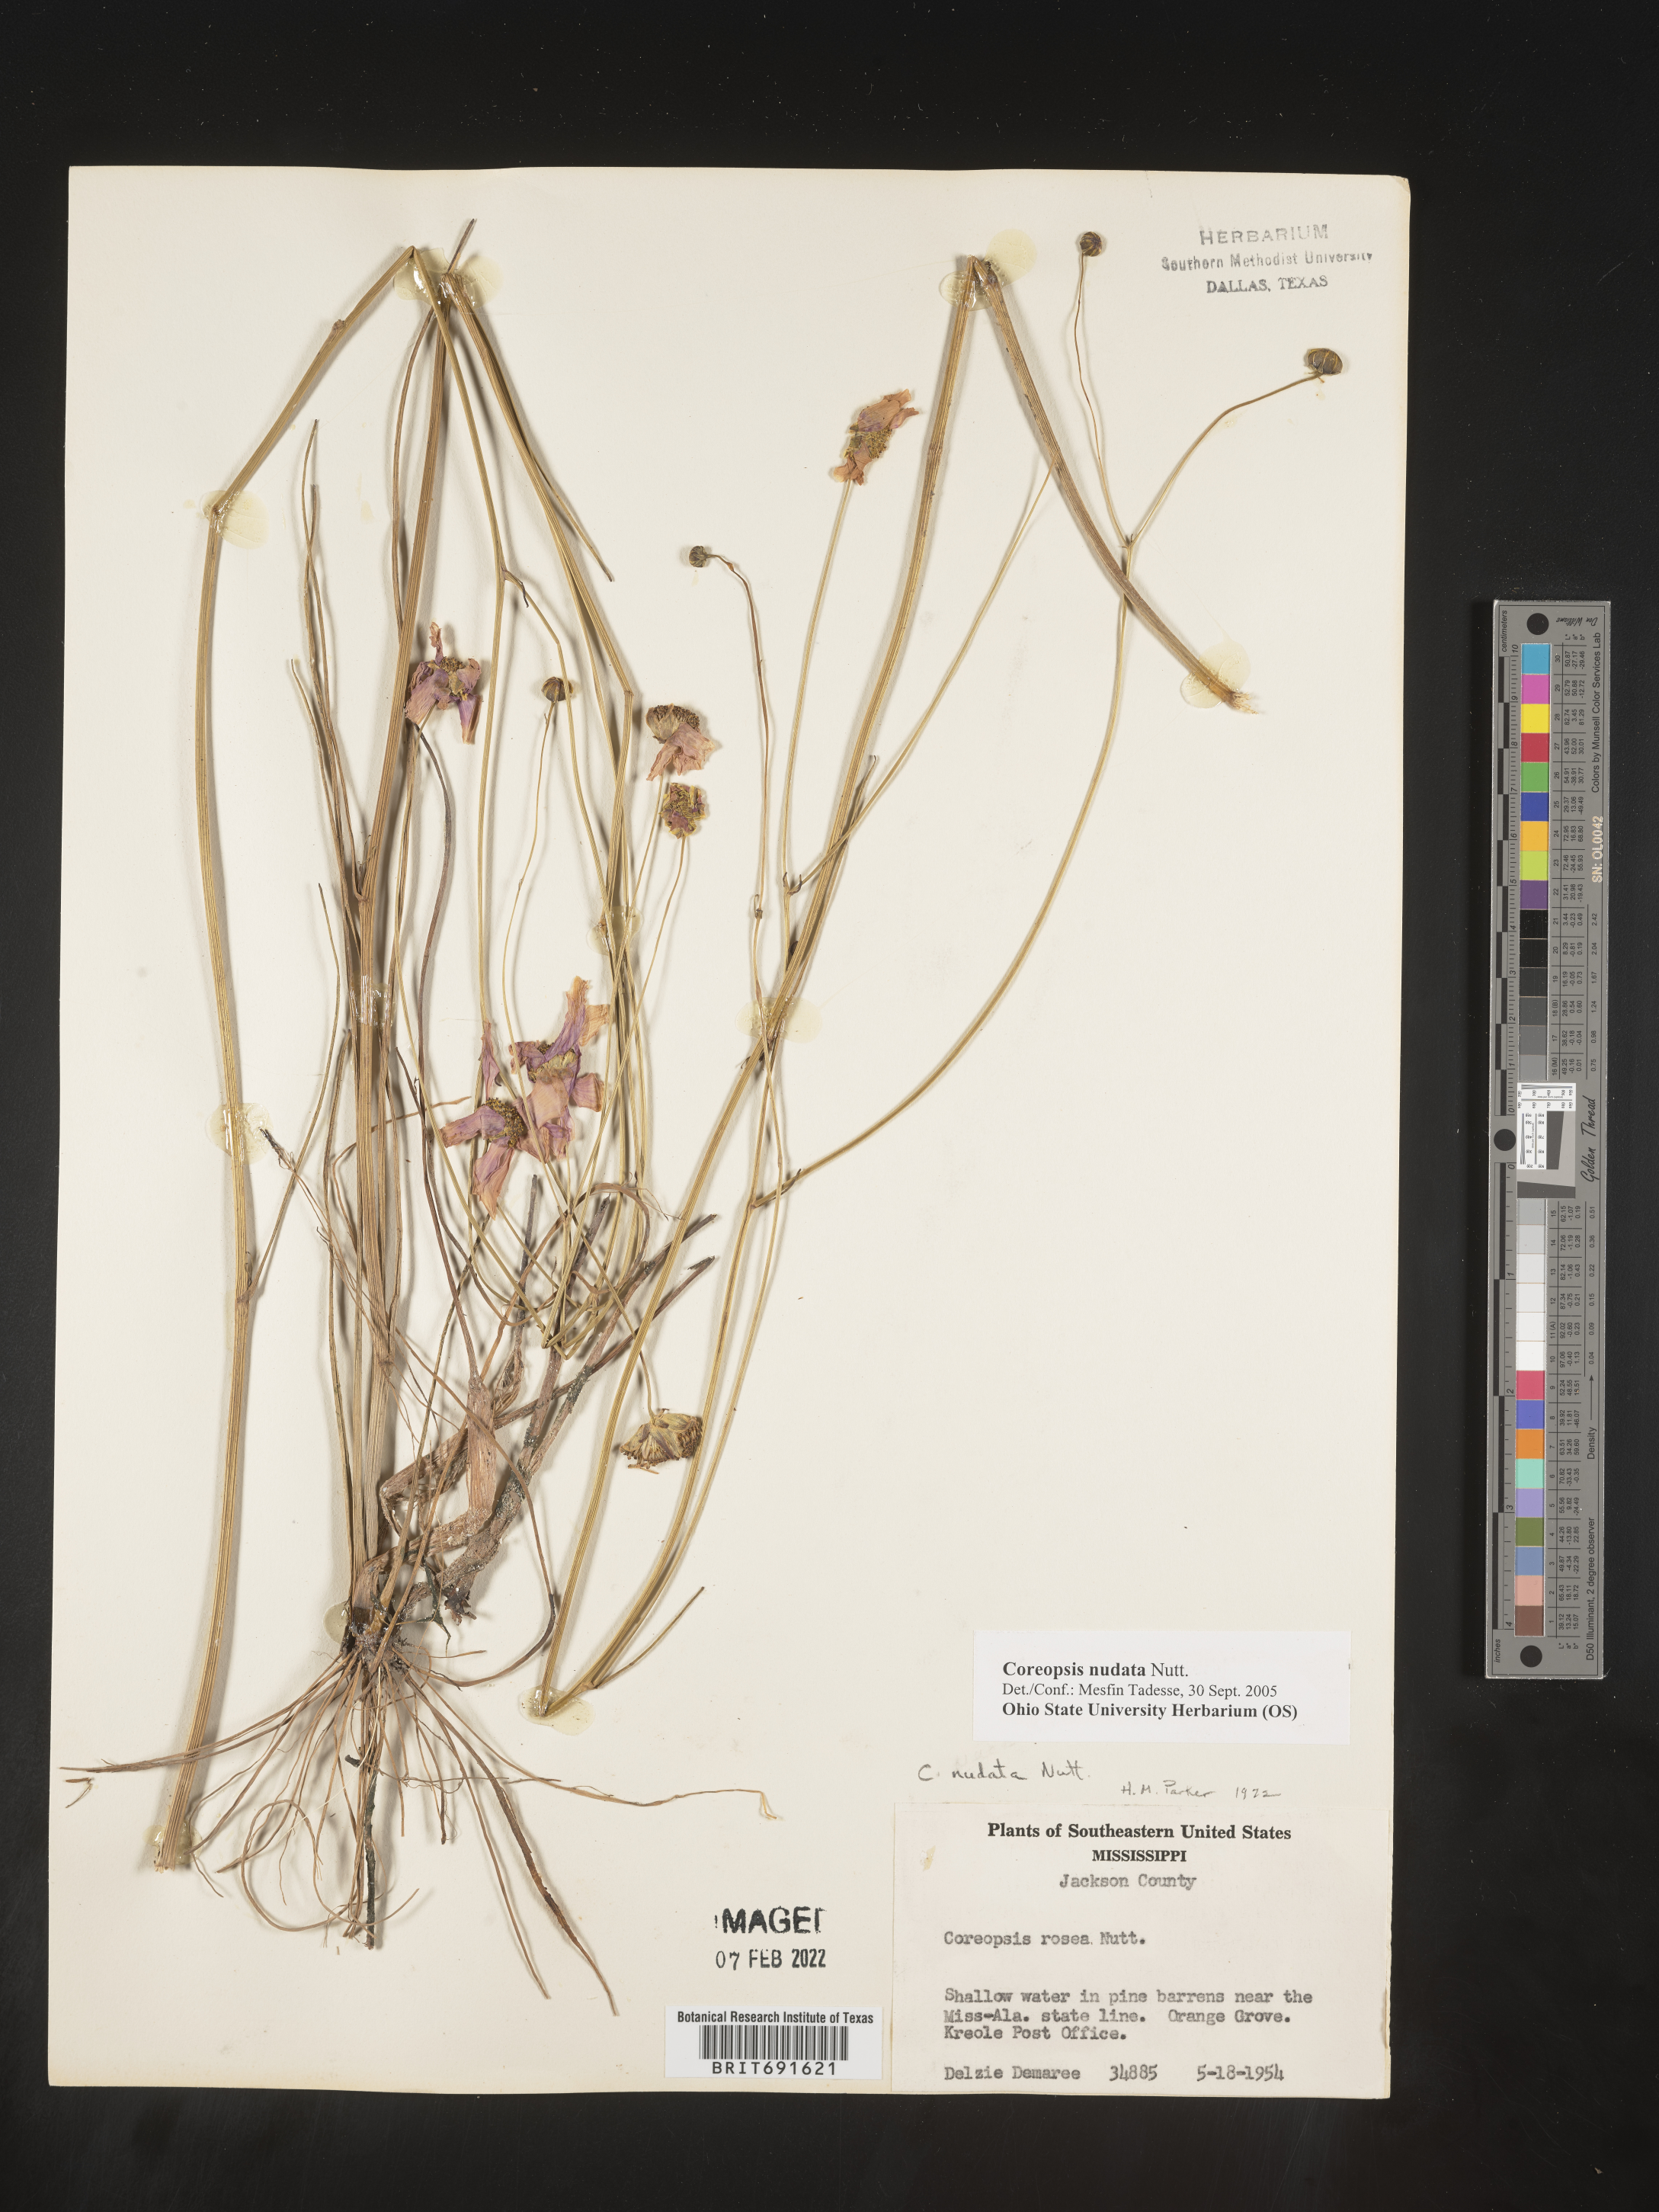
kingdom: Plantae
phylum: Tracheophyta
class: Magnoliopsida
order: Asterales
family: Asteraceae
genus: Coreopsis
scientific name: Coreopsis nudata
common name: Purple tickseed
